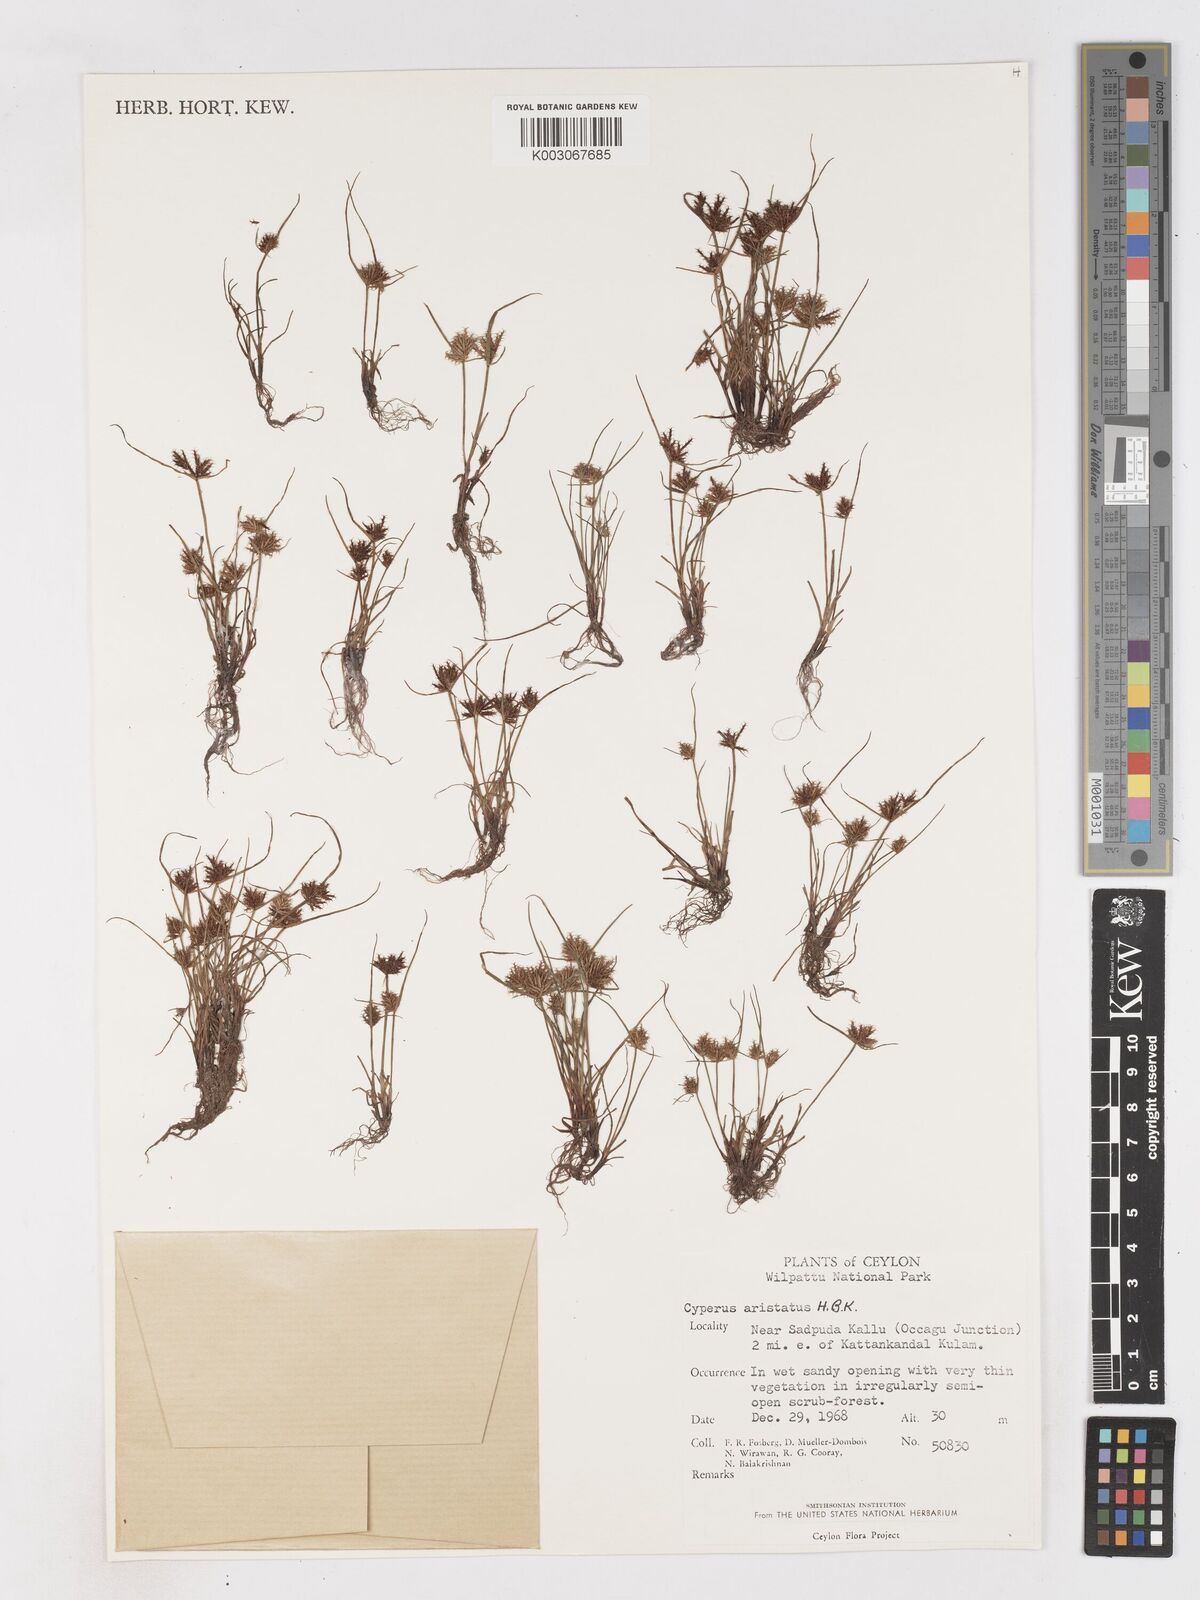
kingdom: Plantae
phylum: Tracheophyta
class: Liliopsida
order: Poales
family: Cyperaceae
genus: Cyperus
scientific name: Cyperus squarrosus
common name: Awned cyperus
